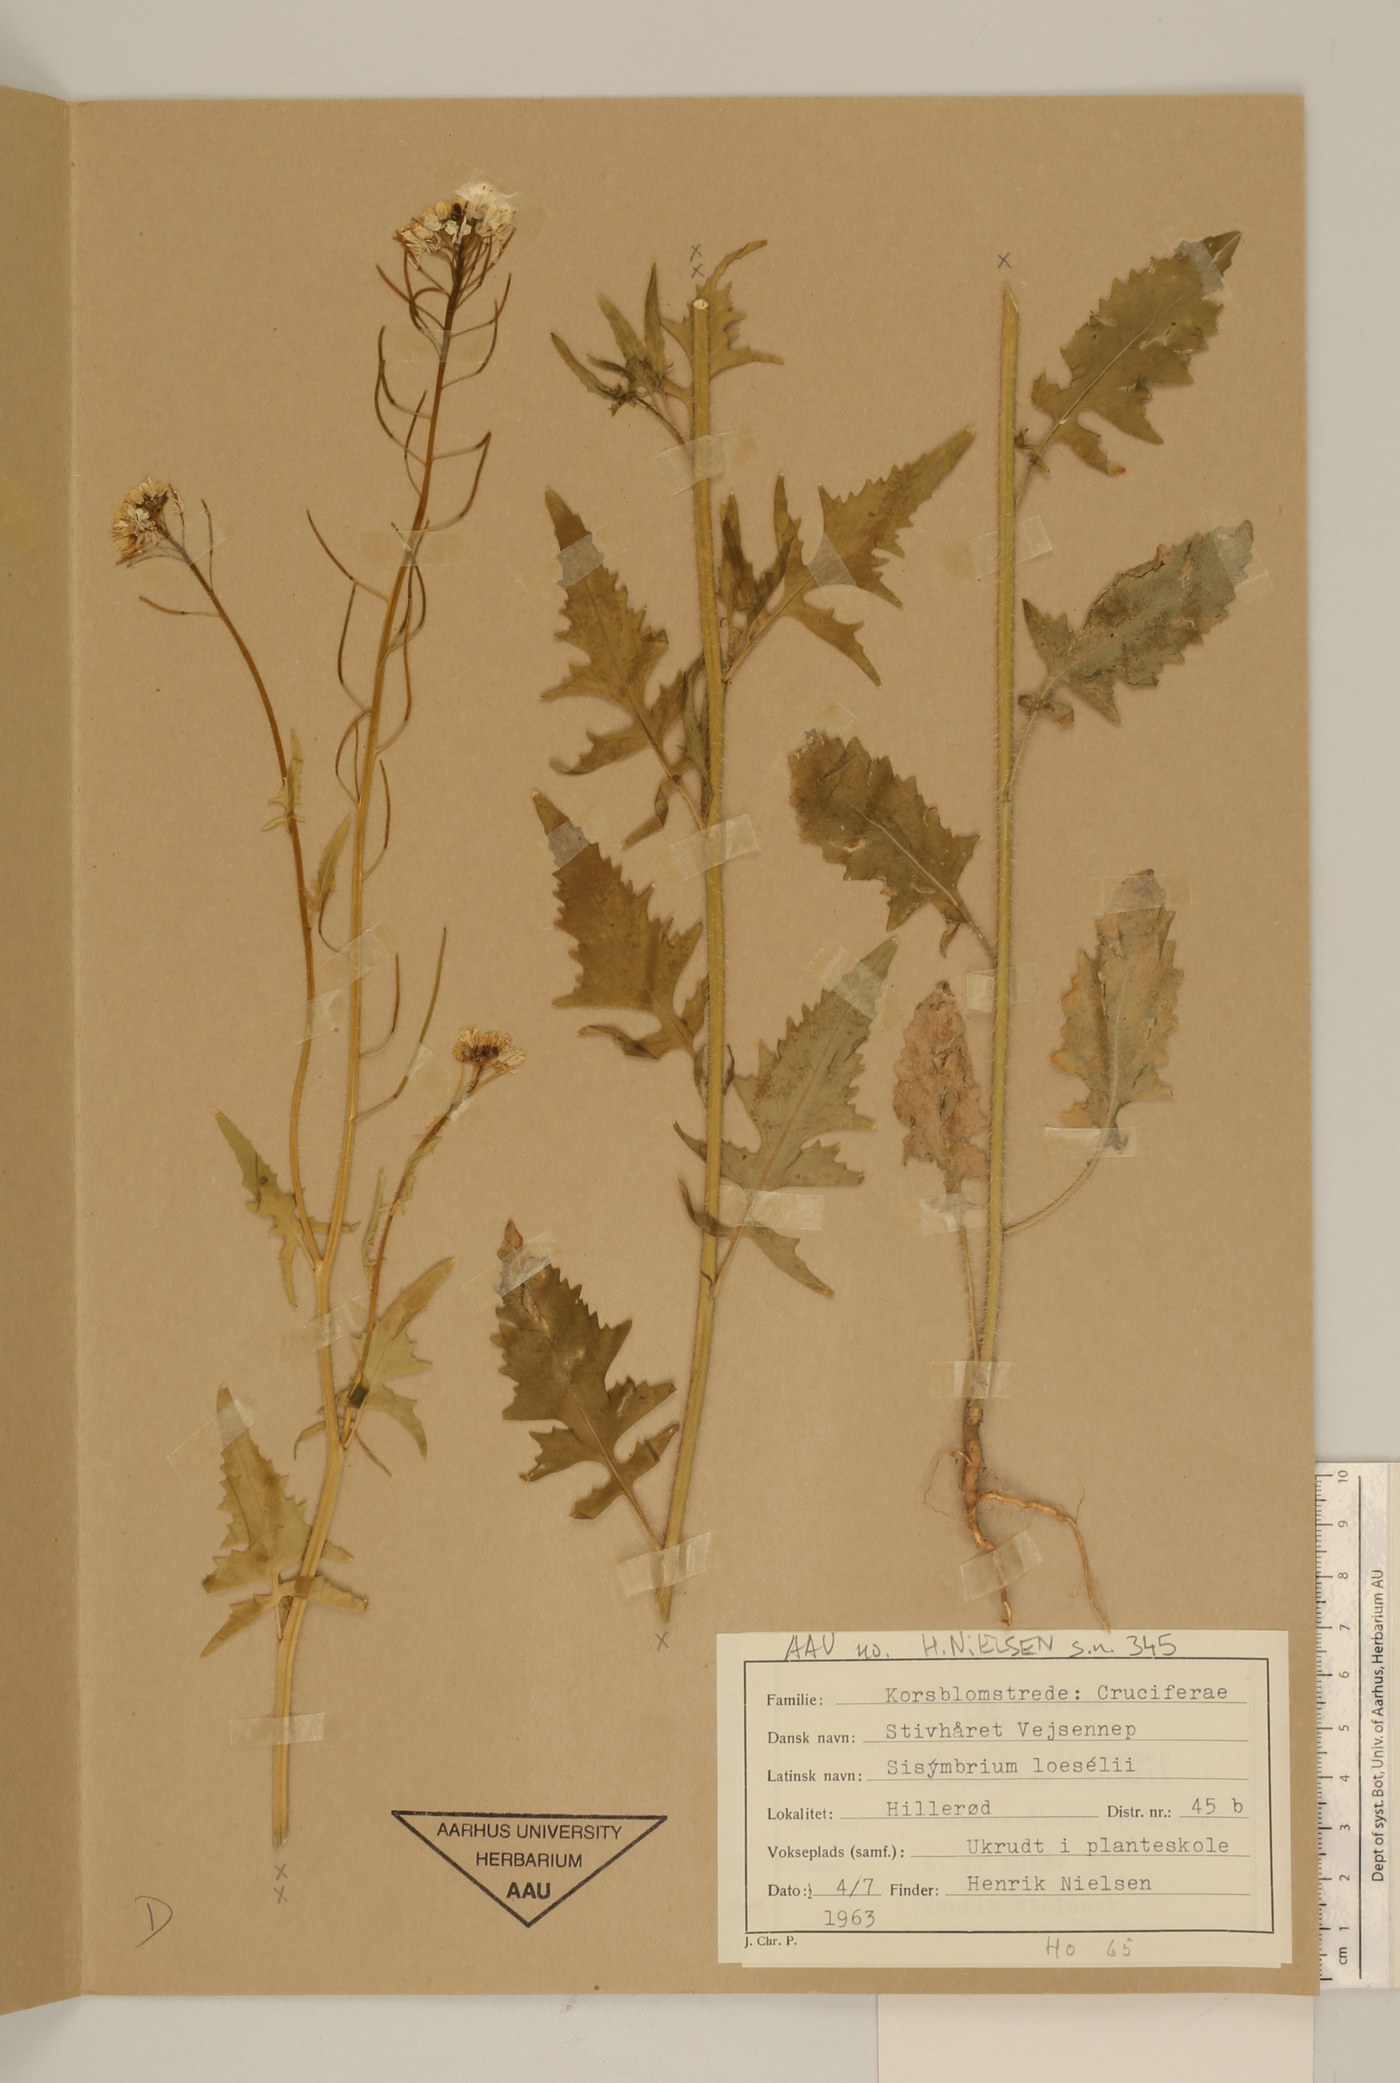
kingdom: Plantae
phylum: Tracheophyta
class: Magnoliopsida
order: Brassicales
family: Brassicaceae
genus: Sisymbrium
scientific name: Sisymbrium loeselii
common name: False london-rocket
